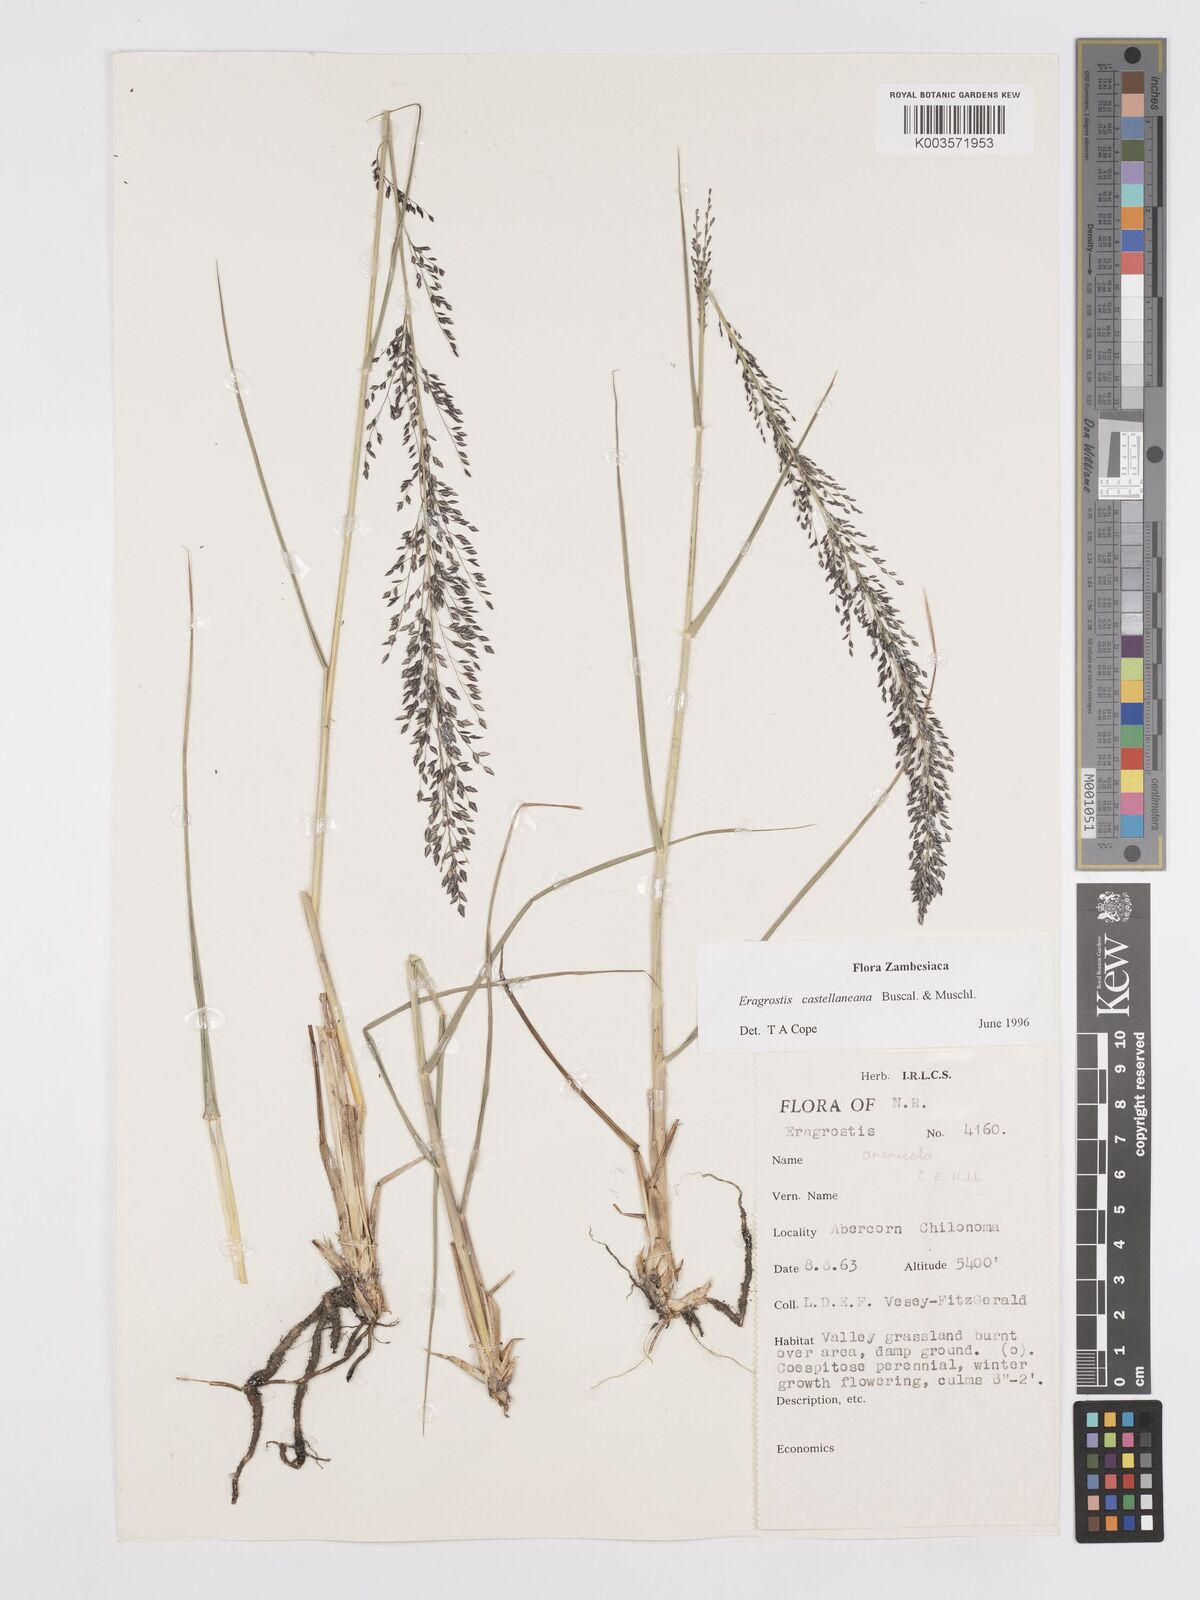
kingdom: Plantae
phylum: Tracheophyta
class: Liliopsida
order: Poales
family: Poaceae
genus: Eragrostis
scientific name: Eragrostis castellaneana
